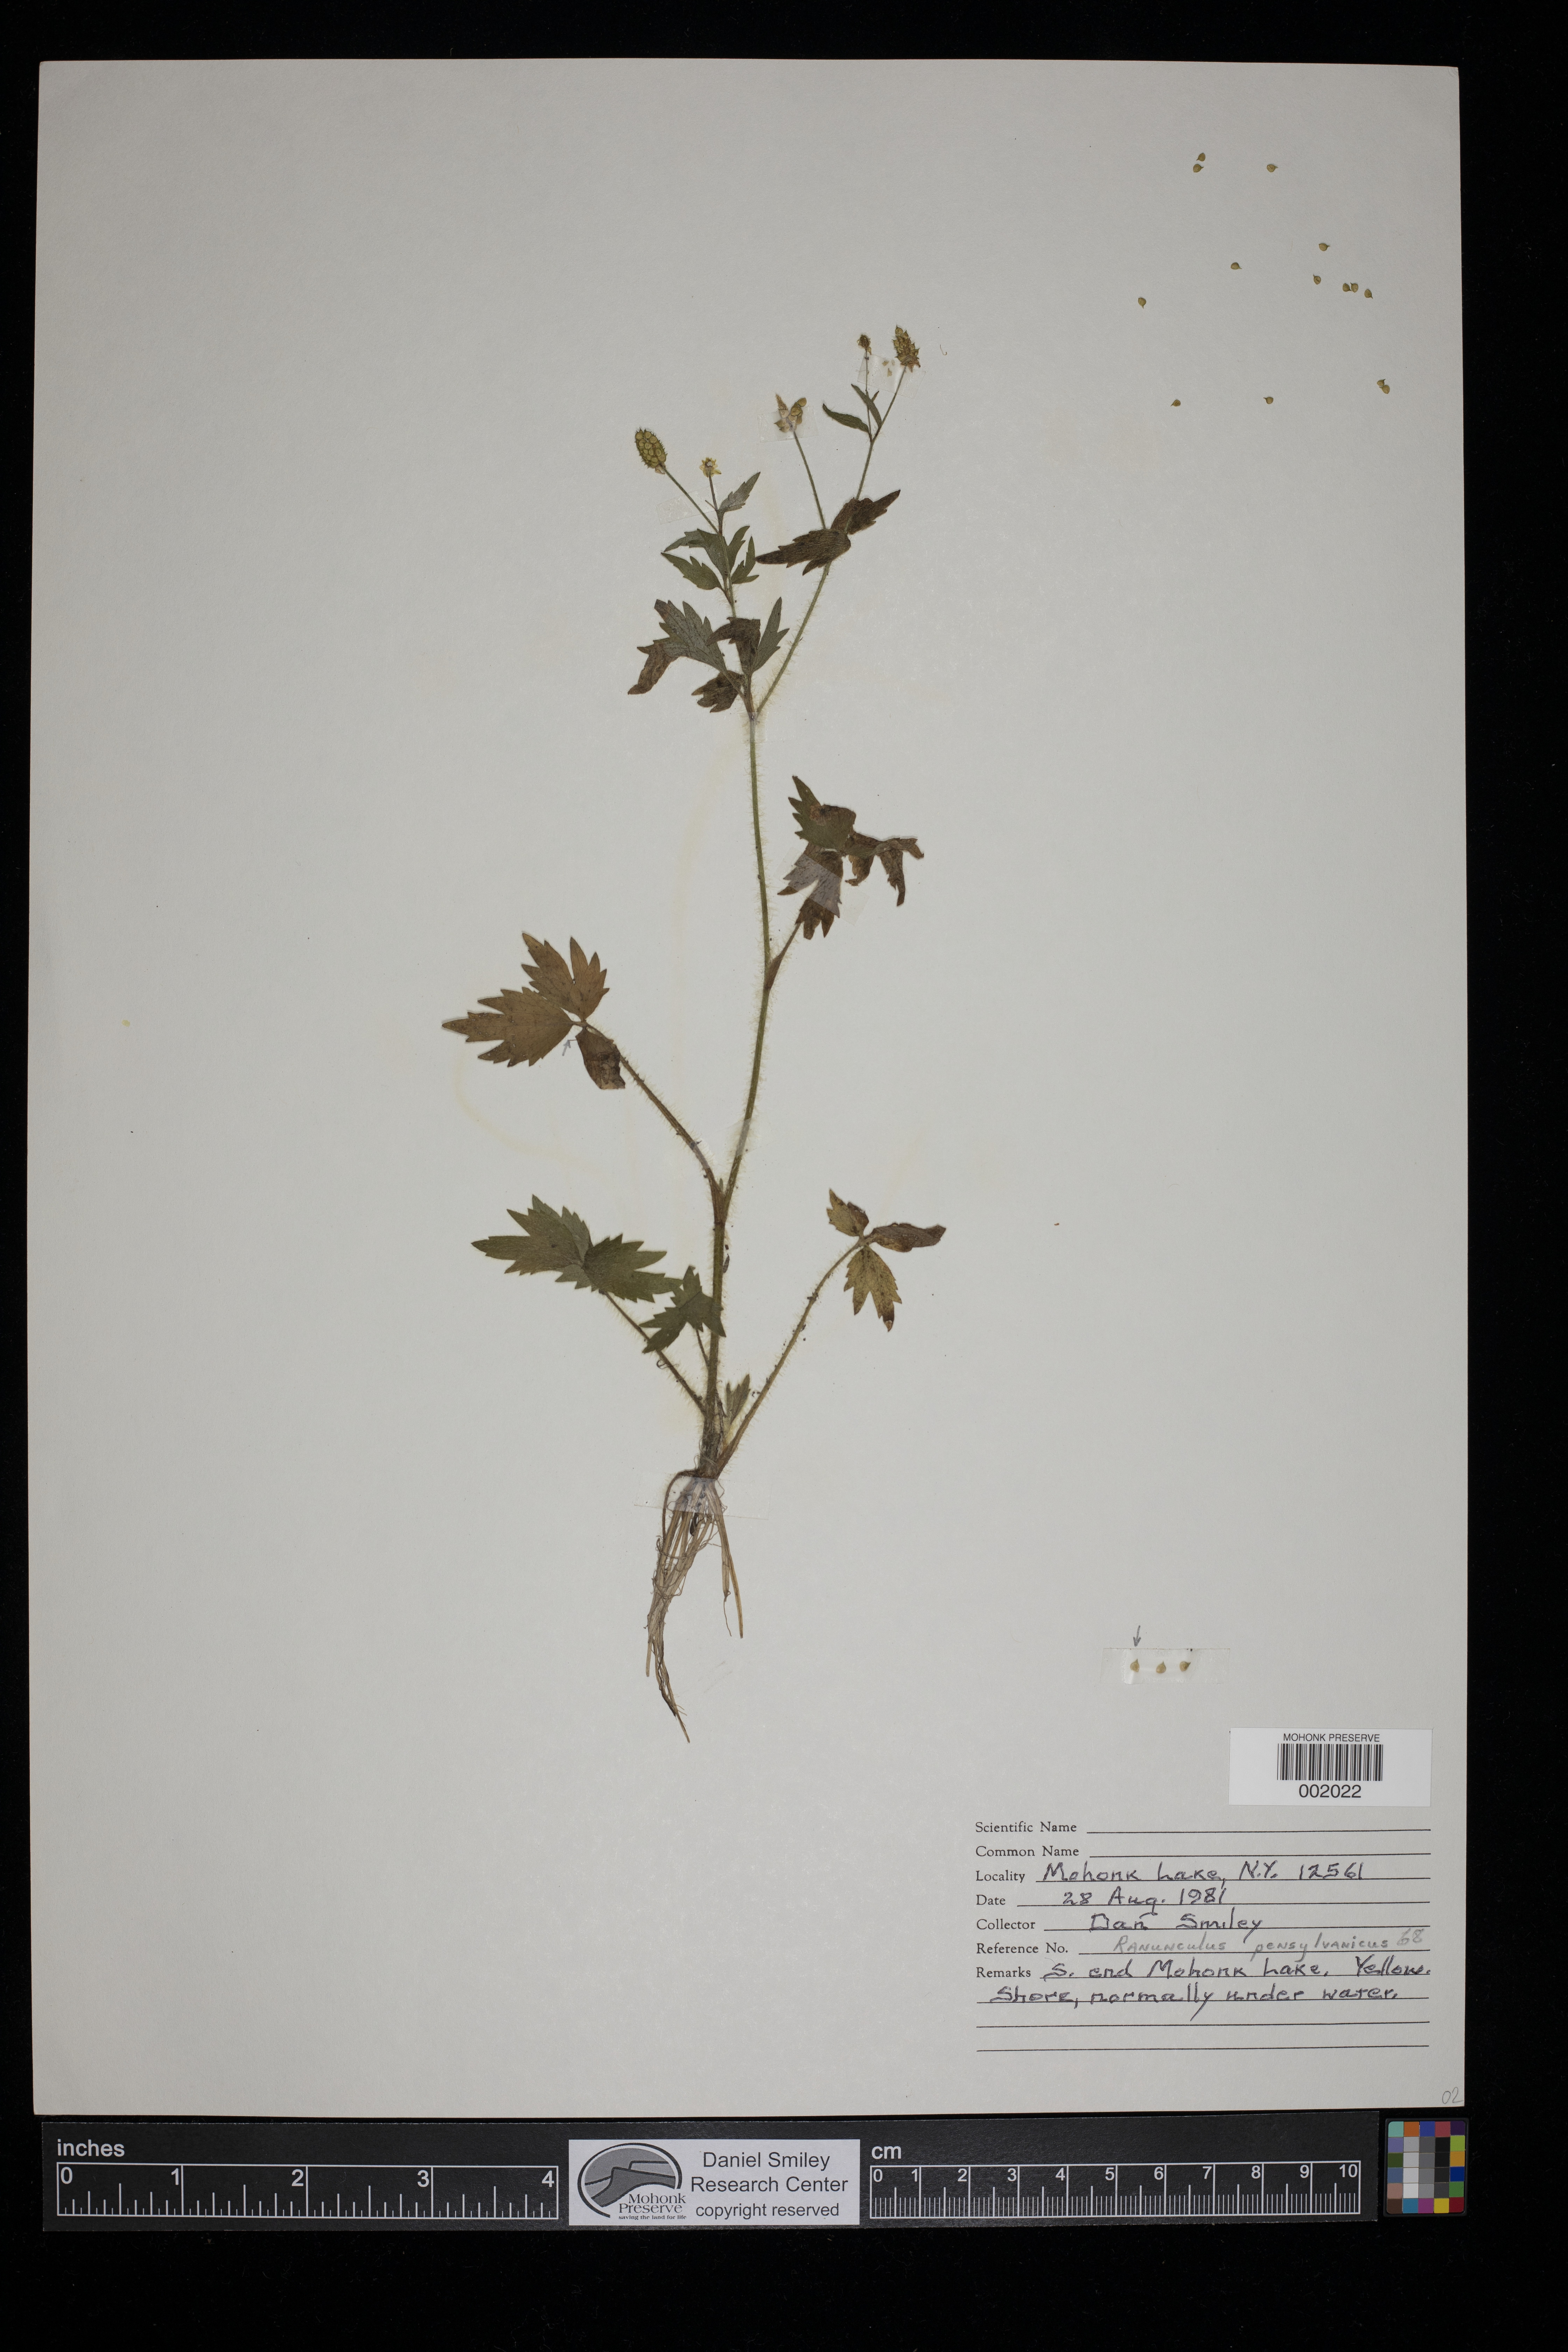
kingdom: Plantae
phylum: Tracheophyta
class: Magnoliopsida
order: Ranunculales
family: Ranunculaceae
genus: Ranunculus
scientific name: Ranunculus pensylvanicus
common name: Bristly buttercup
